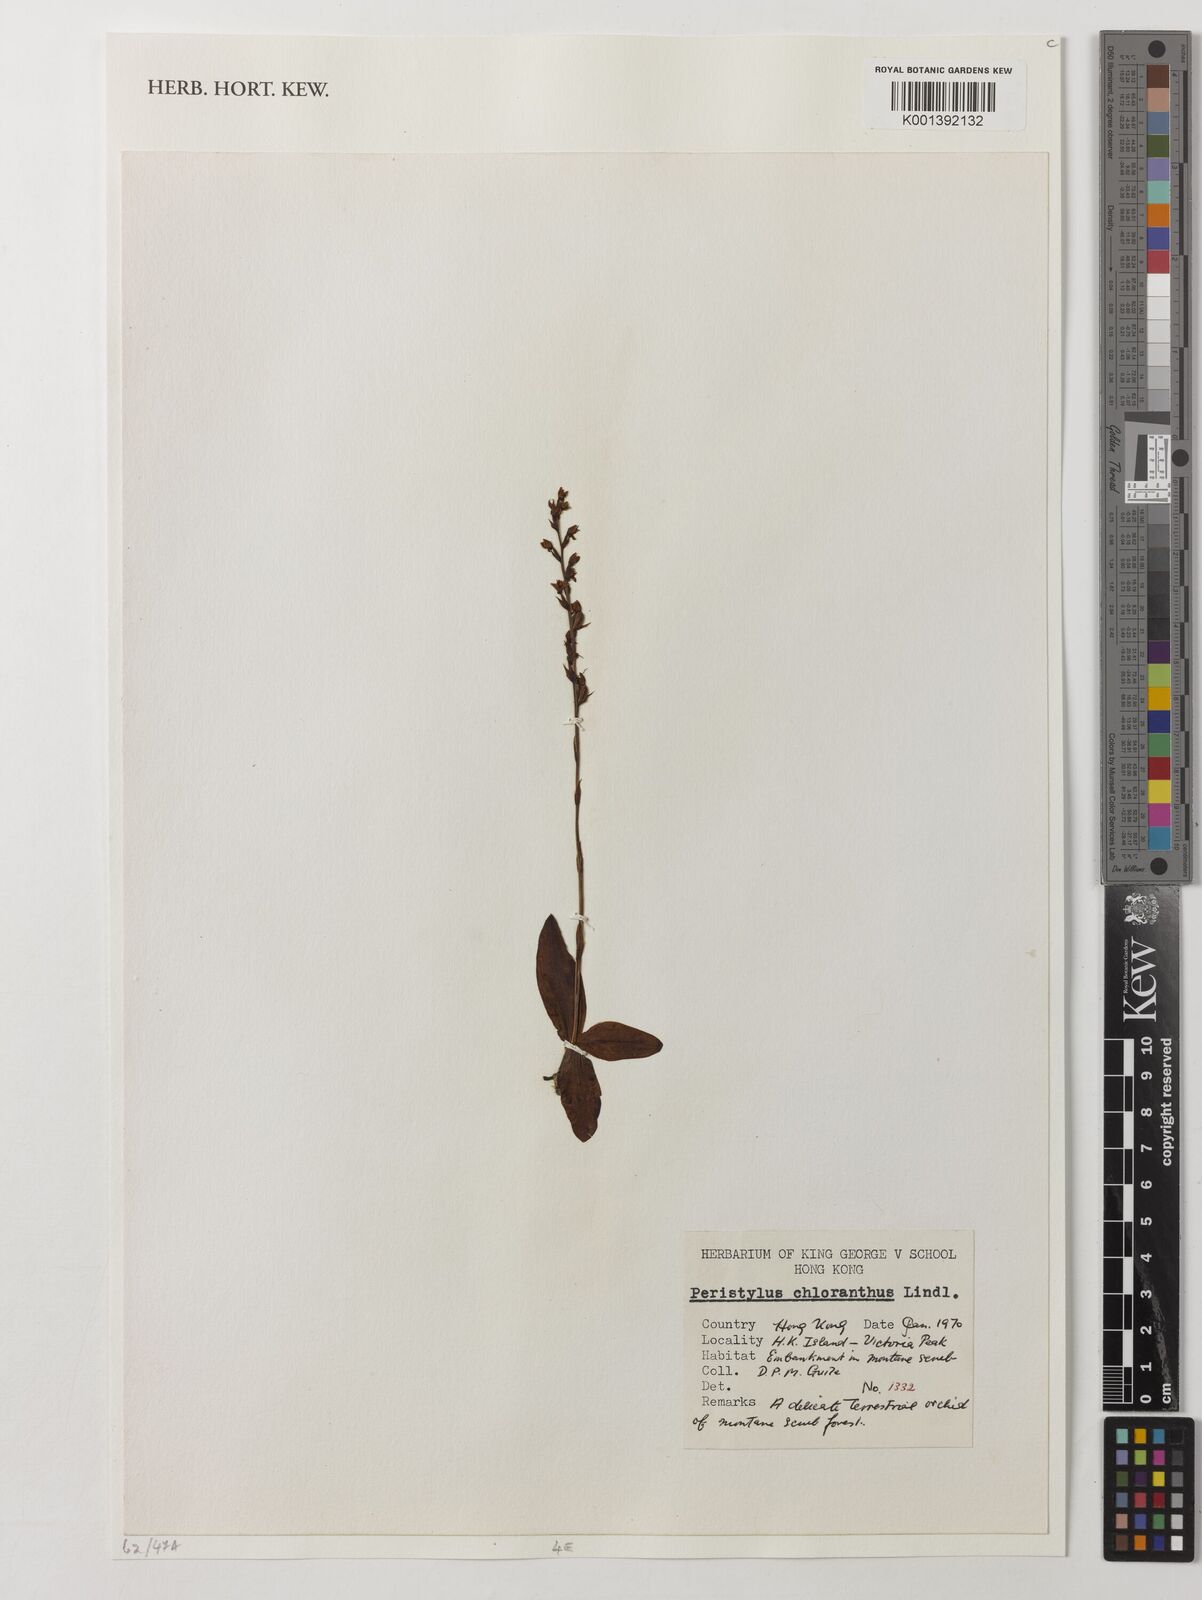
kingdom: Plantae
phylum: Tracheophyta
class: Liliopsida
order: Asparagales
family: Orchidaceae
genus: Peristylus
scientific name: Peristylus
